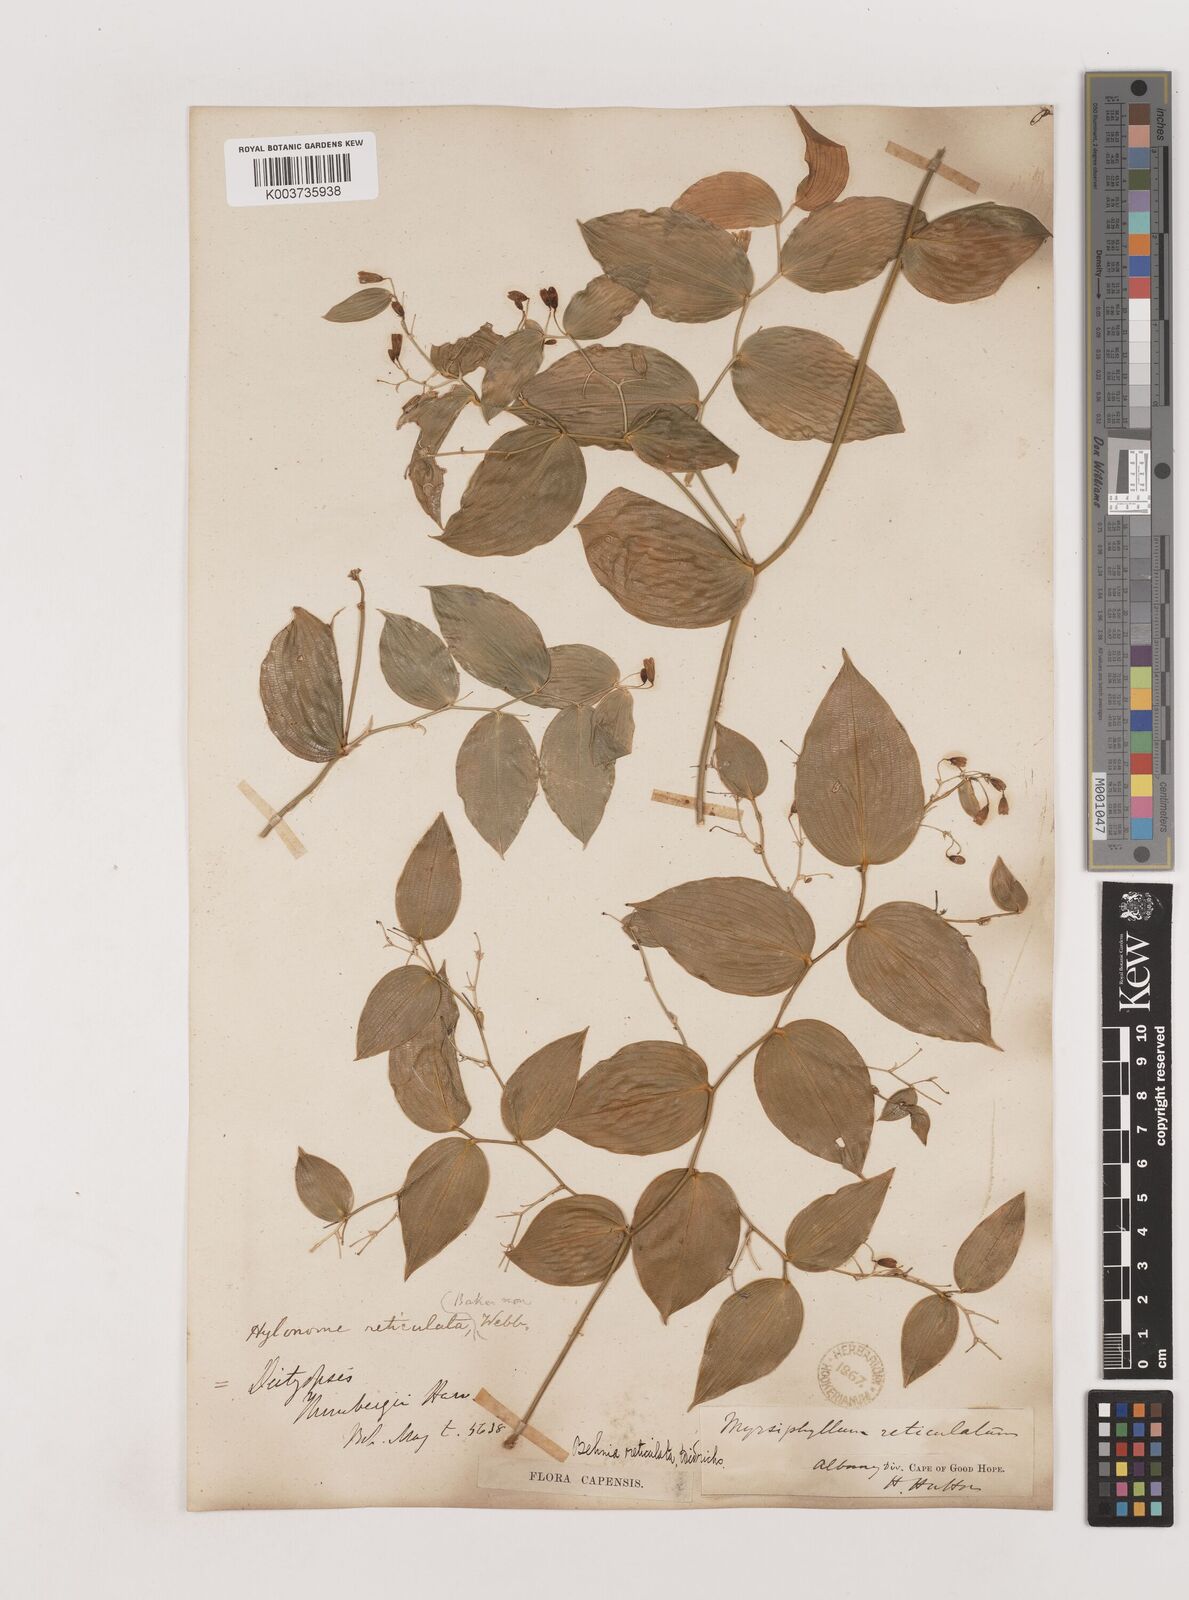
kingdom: Plantae
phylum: Tracheophyta
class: Liliopsida
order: Asparagales
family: Asparagaceae
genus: Behnia
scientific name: Behnia reticulata
